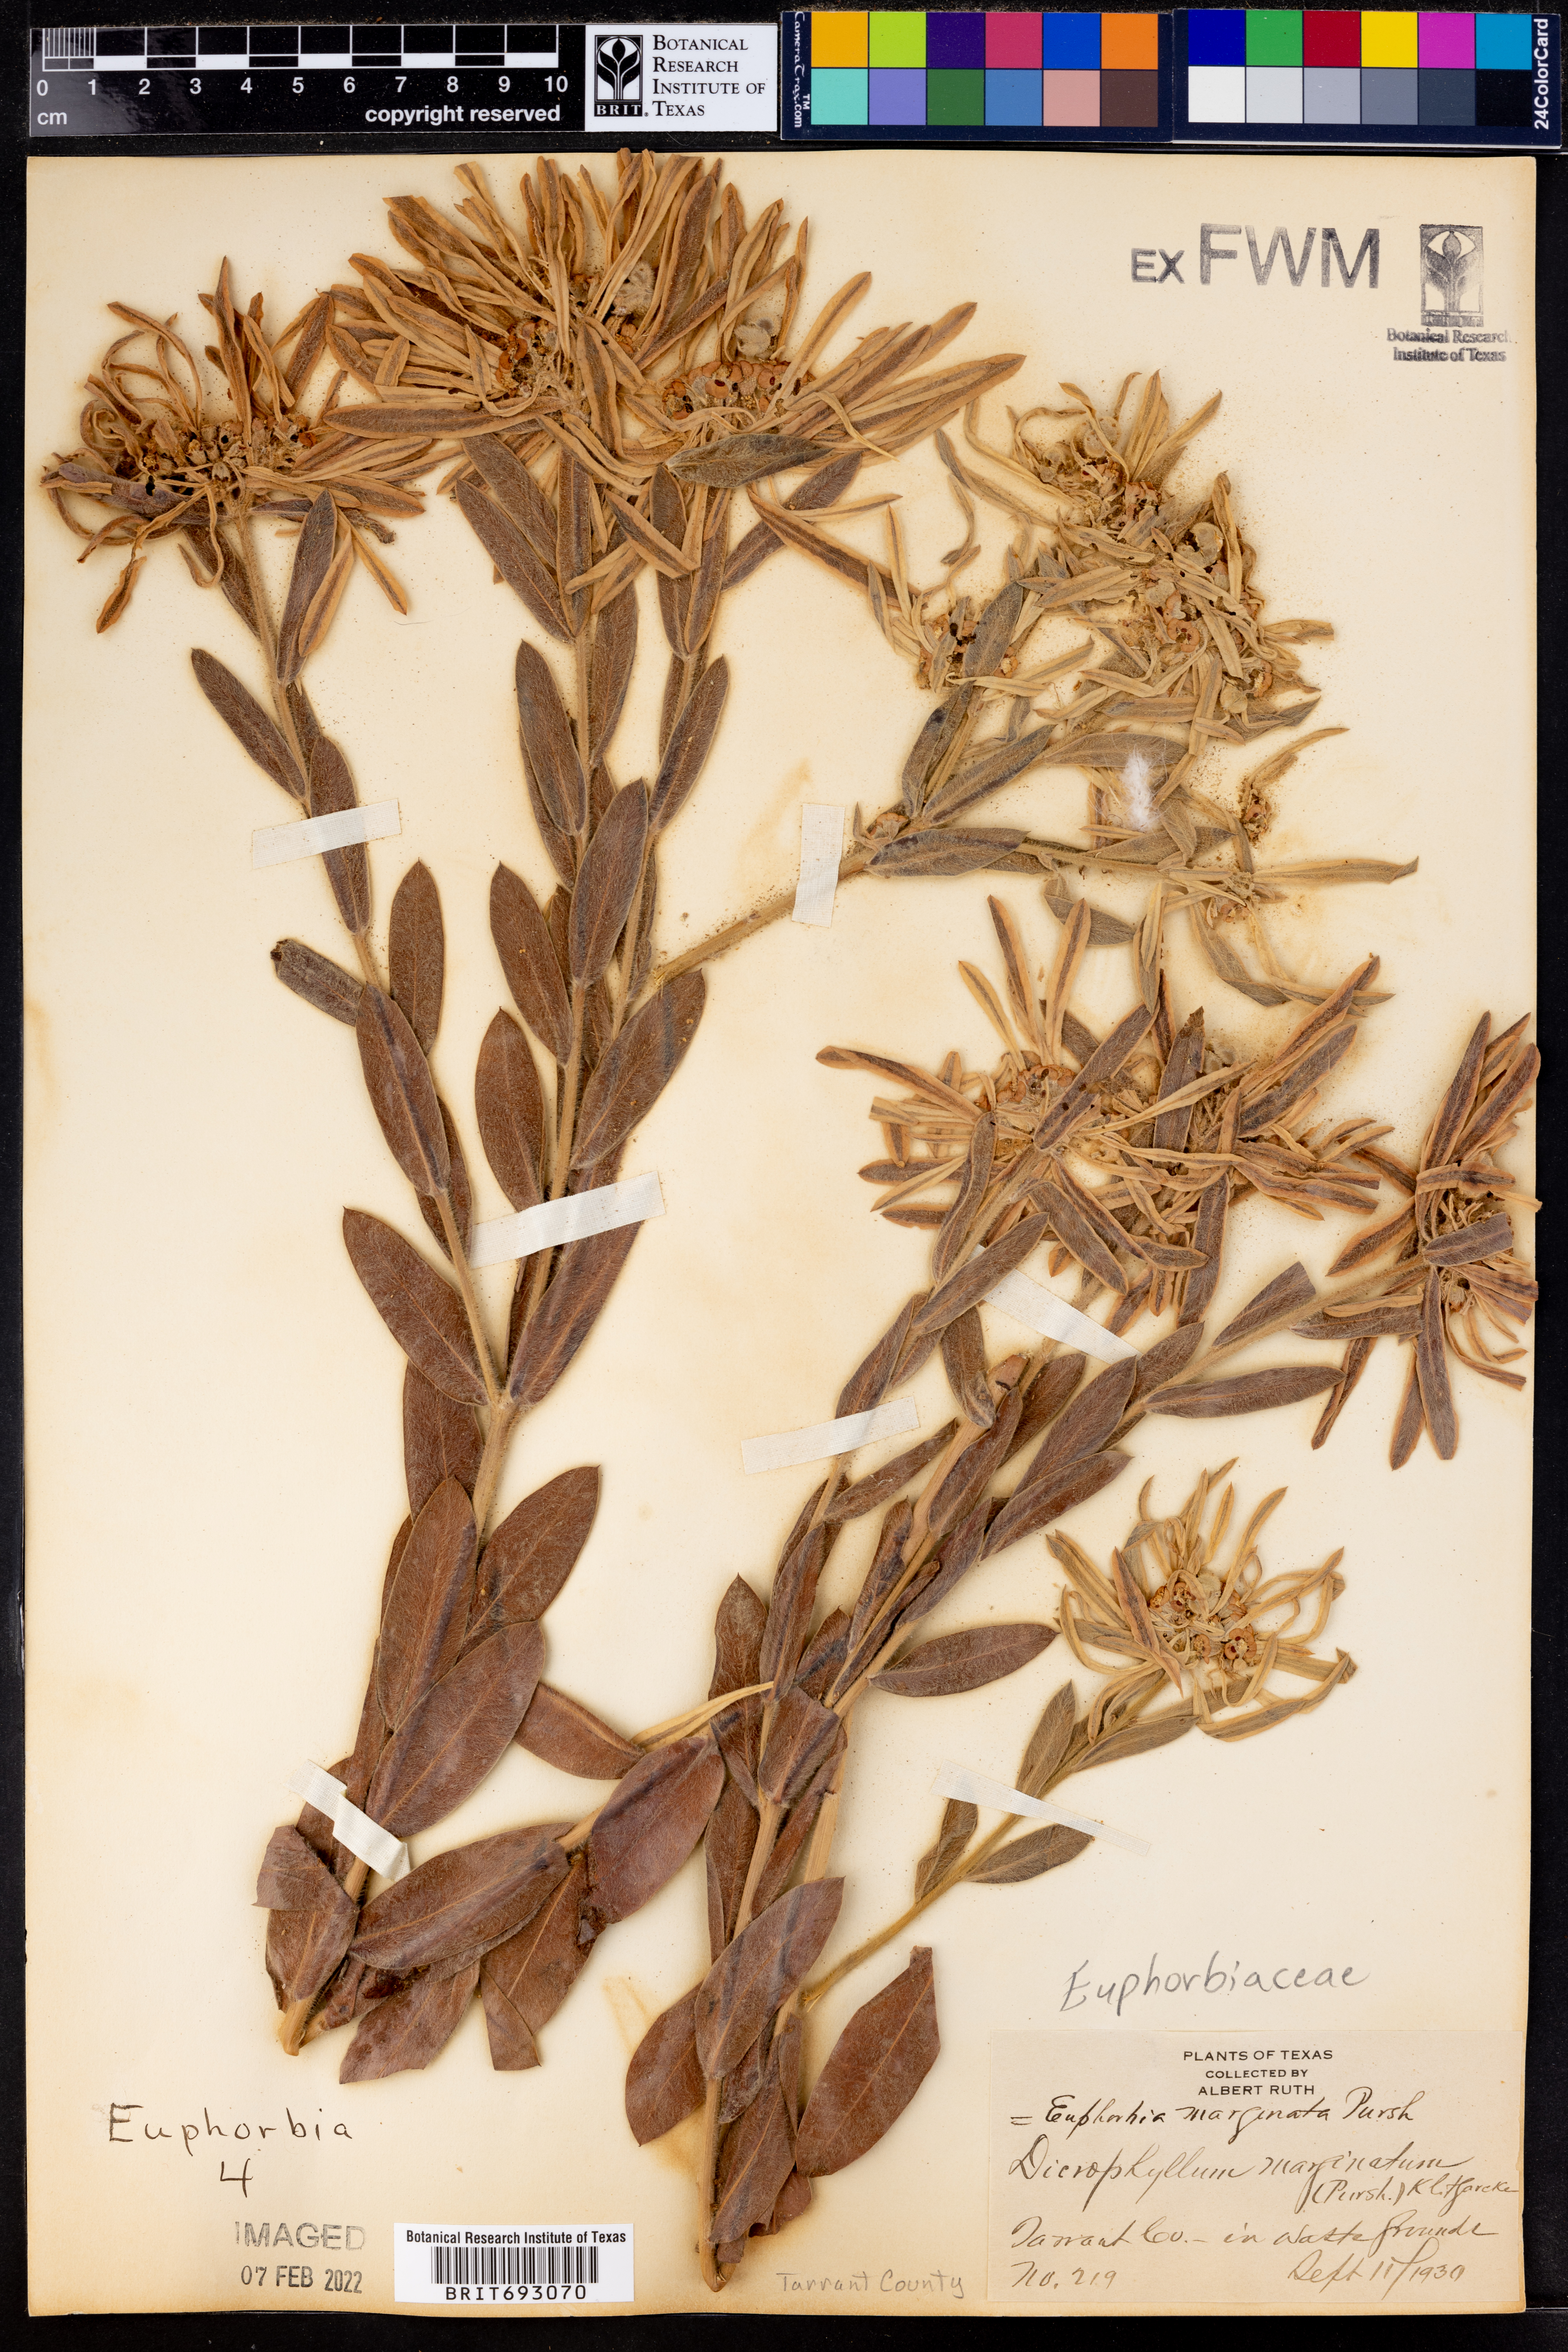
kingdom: Plantae
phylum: Tracheophyta
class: Magnoliopsida
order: Malpighiales
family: Euphorbiaceae
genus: Euphorbia
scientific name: Euphorbia marginata
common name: Ghostweed
